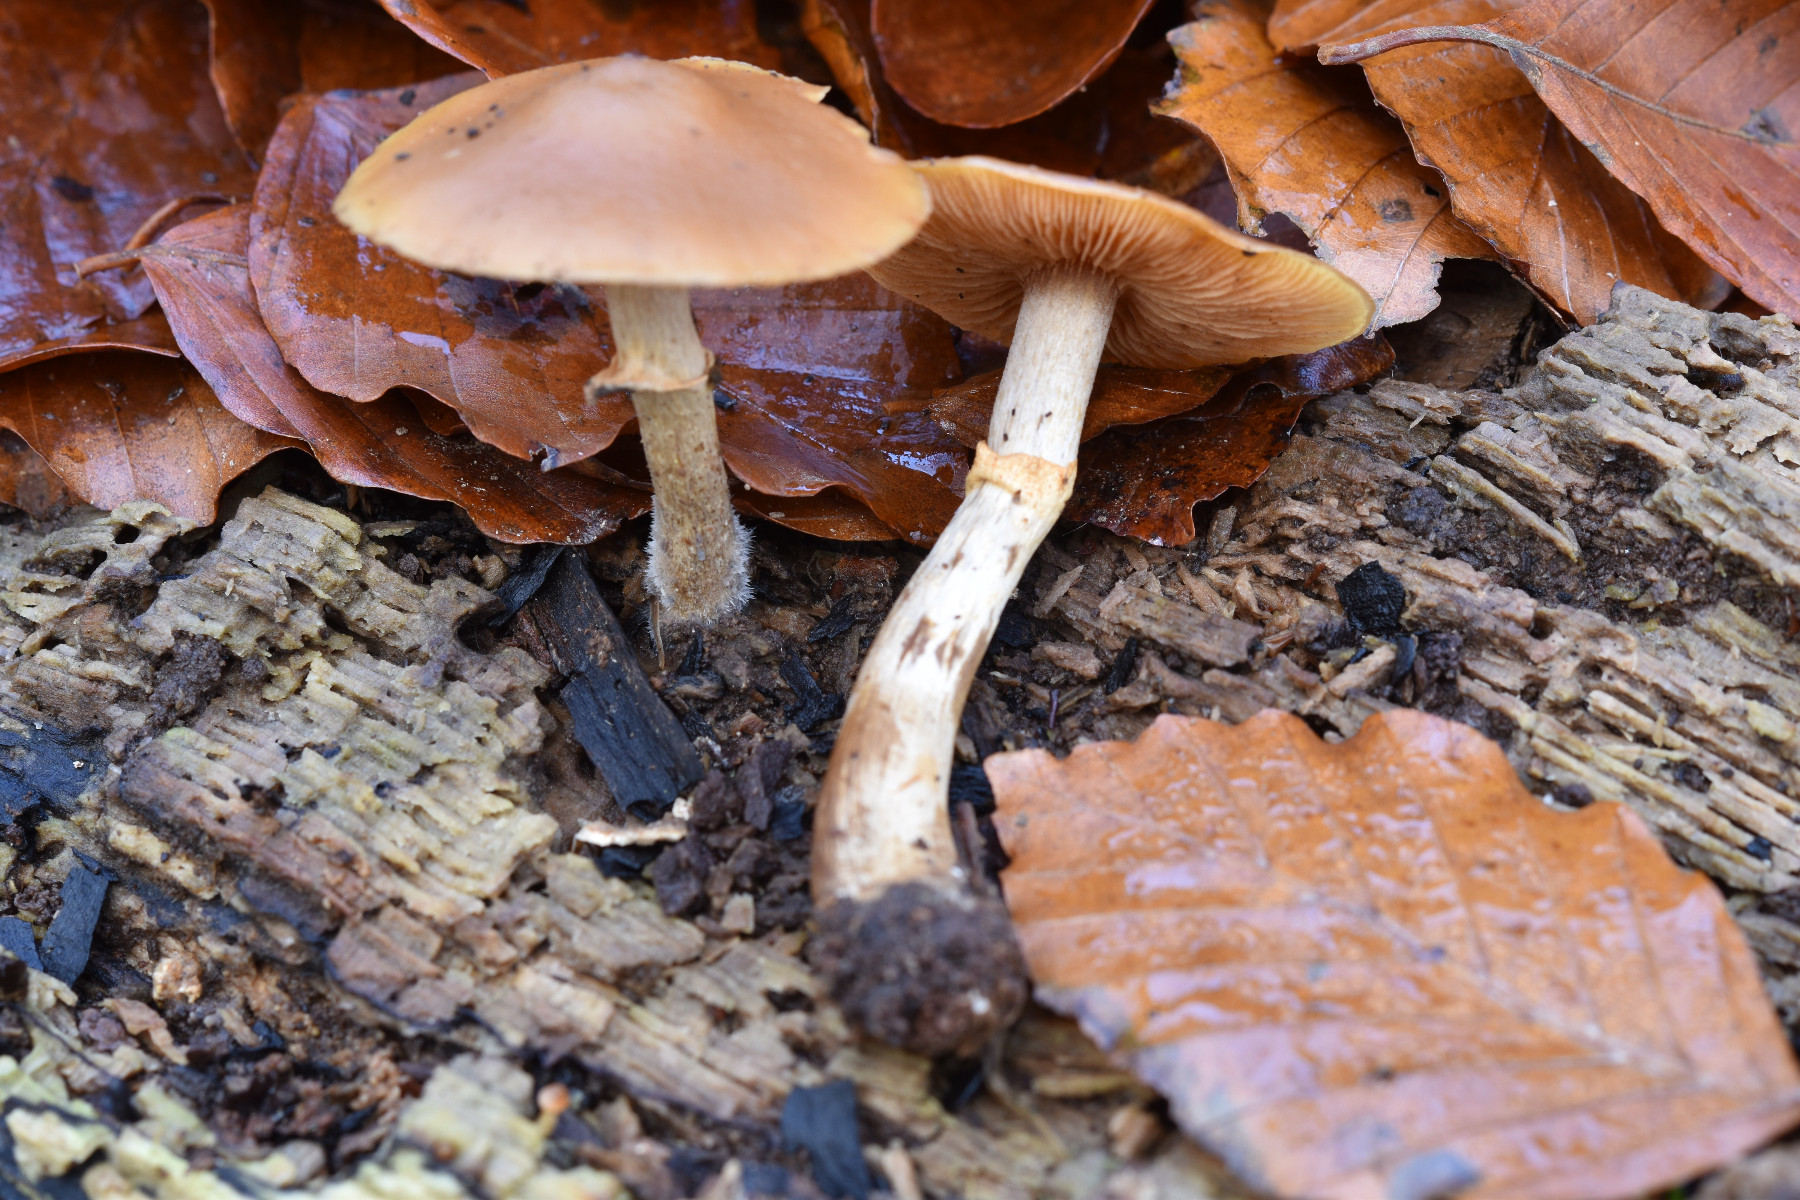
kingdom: Fungi
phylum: Basidiomycota
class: Agaricomycetes
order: Agaricales
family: Hymenogastraceae
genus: Galerina
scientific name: Galerina marginata
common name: randbæltet hjelmhat
